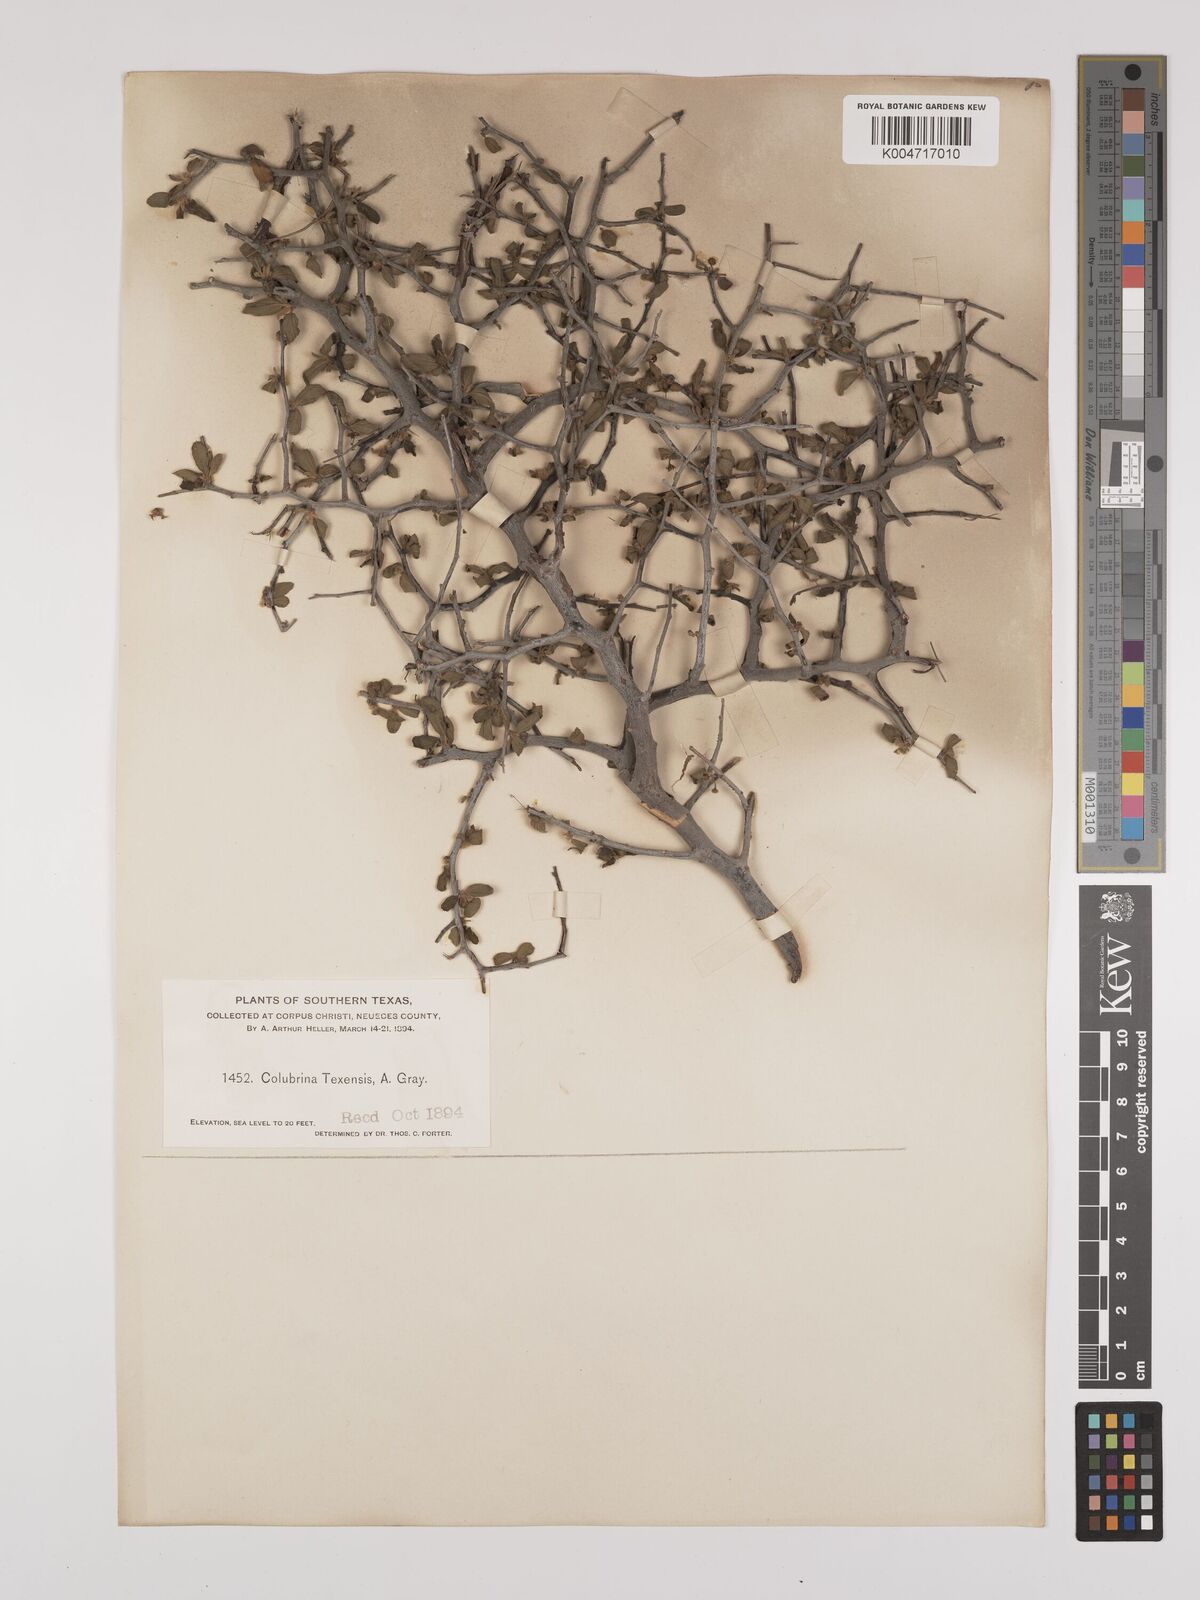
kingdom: Plantae
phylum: Tracheophyta
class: Magnoliopsida
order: Rosales
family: Rhamnaceae
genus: Colubrina
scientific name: Colubrina texensis
